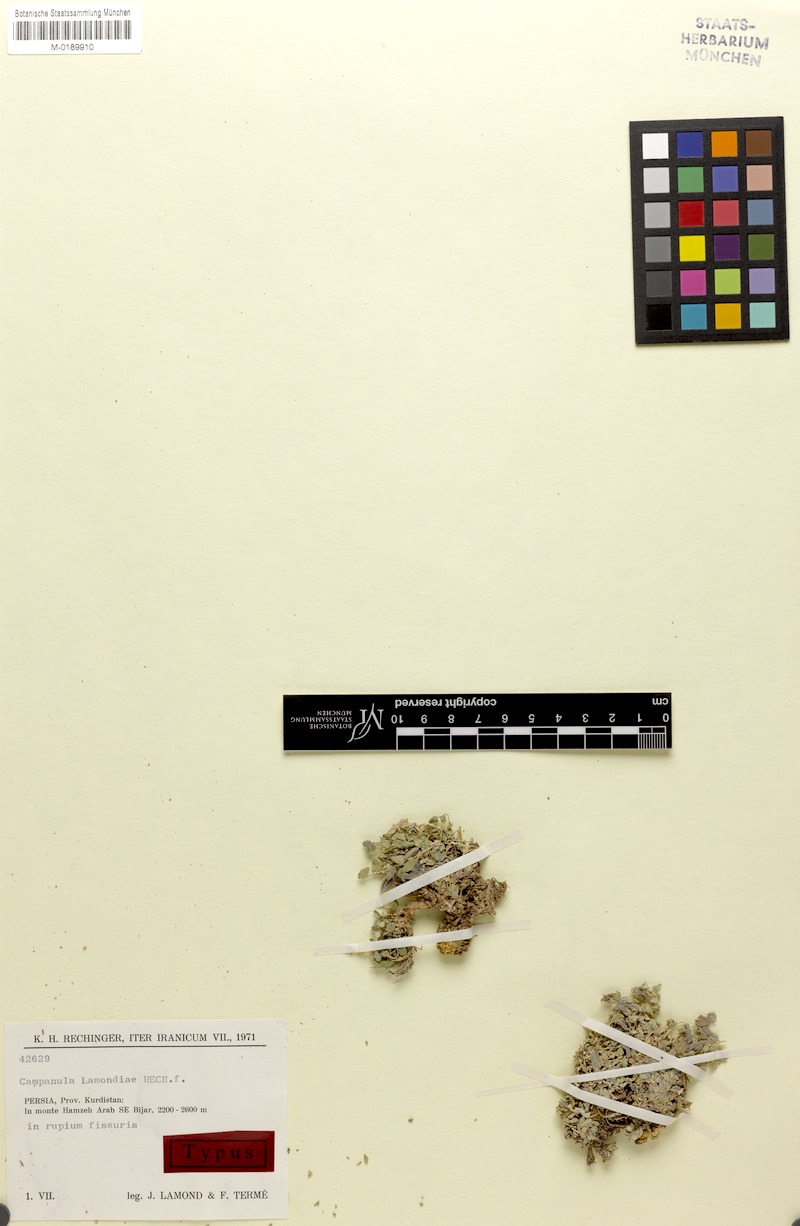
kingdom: Plantae
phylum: Tracheophyta
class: Magnoliopsida
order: Asterales
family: Campanulaceae
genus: Campanula
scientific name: Campanula lamondiae
